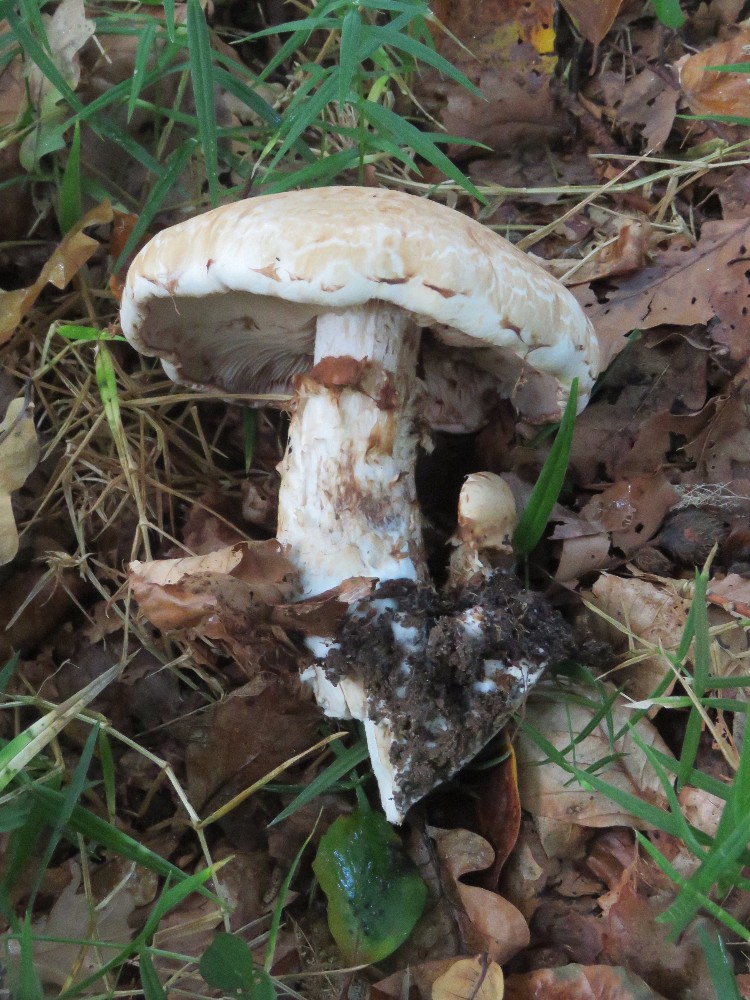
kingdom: Fungi
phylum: Basidiomycota
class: Agaricomycetes
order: Agaricales
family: Hymenogastraceae
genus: Hebeloma
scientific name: Hebeloma radicosum
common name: pælerods-tåreblad
